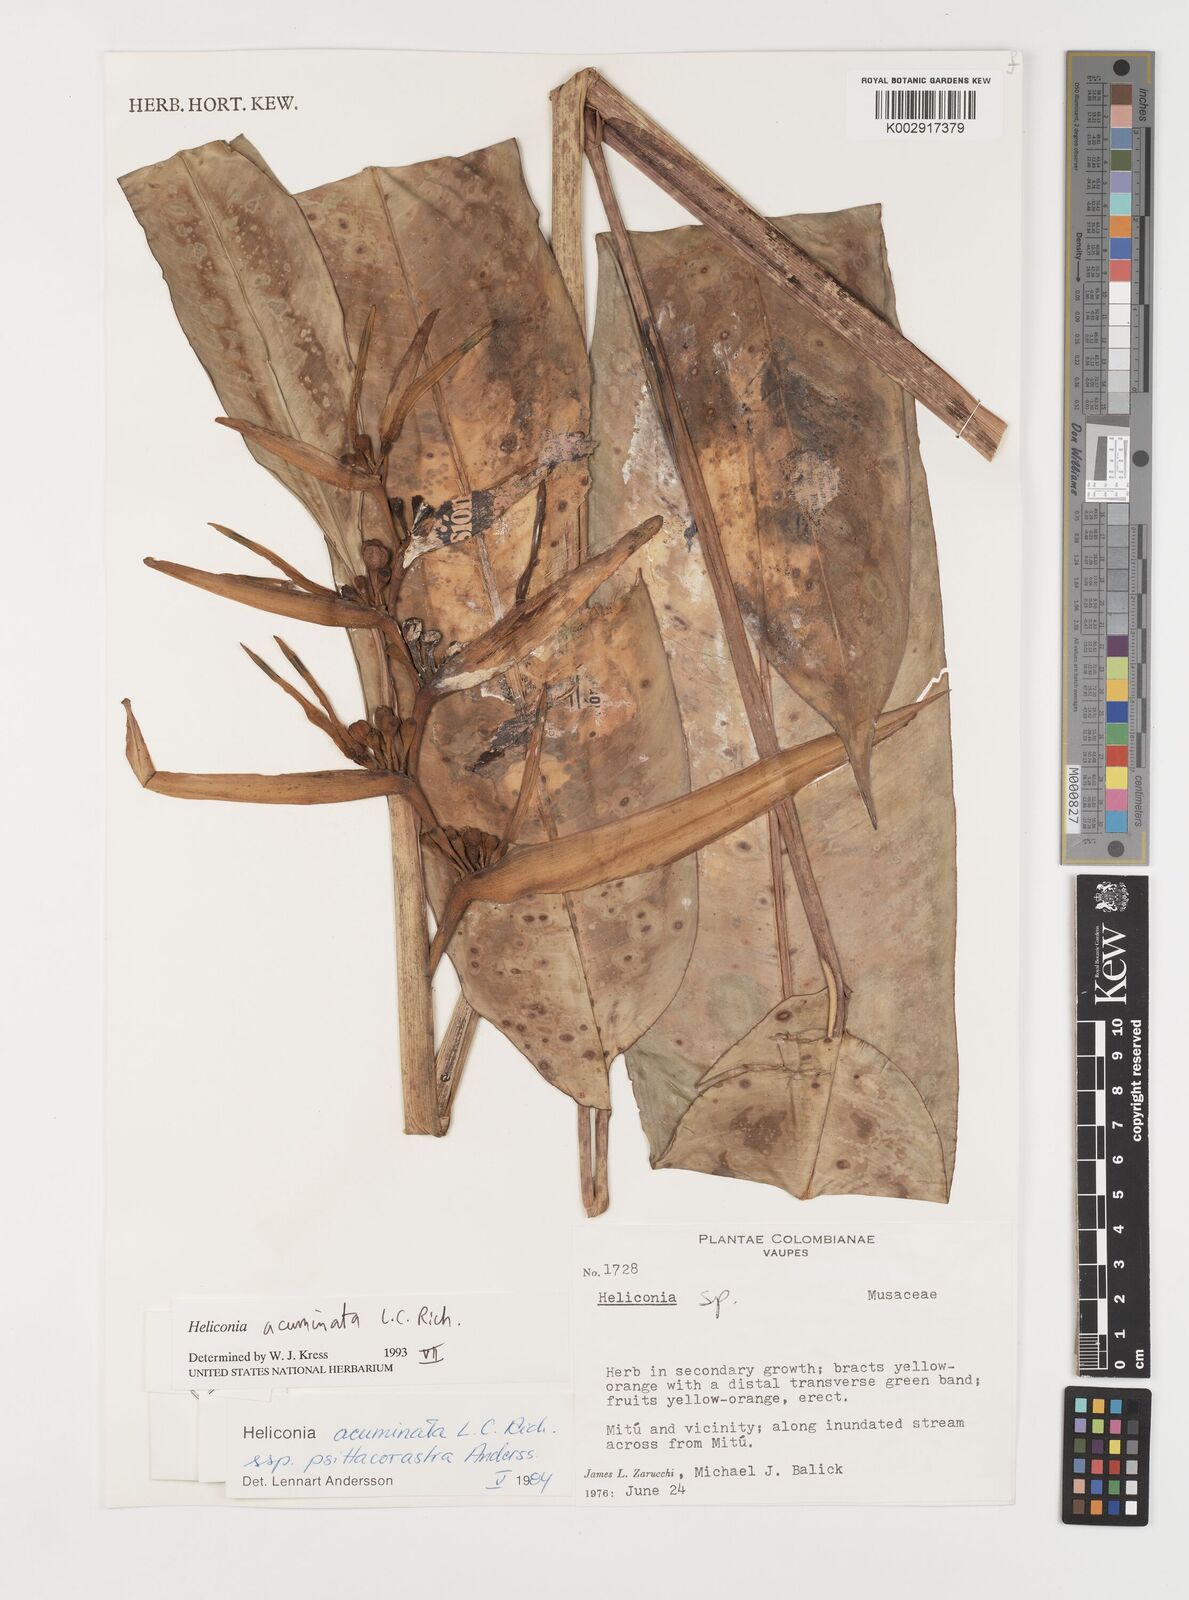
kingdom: Plantae
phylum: Tracheophyta
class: Liliopsida
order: Zingiberales
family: Heliconiaceae
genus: Heliconia
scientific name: Heliconia acuminata
